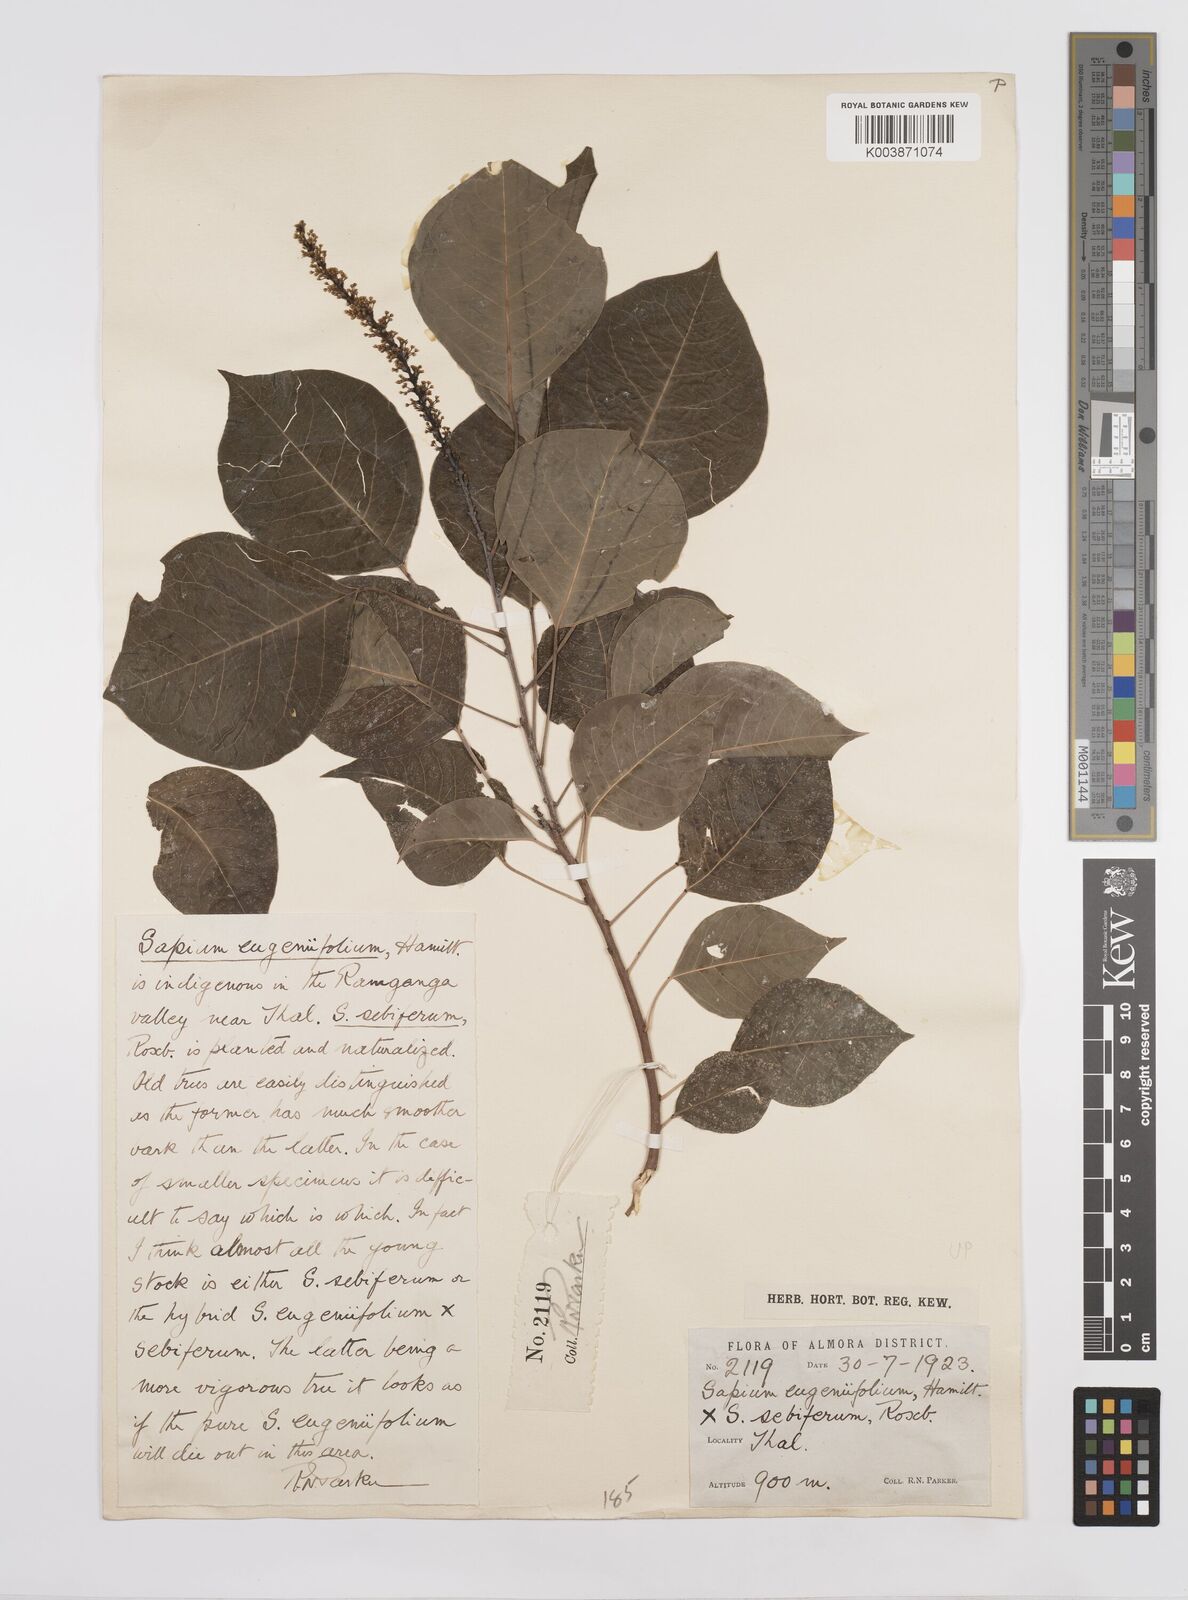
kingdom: Plantae
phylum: Tracheophyta
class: Magnoliopsida
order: Malpighiales
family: Euphorbiaceae
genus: Triadica
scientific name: Triadica sebifera
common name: Chinese tallow
